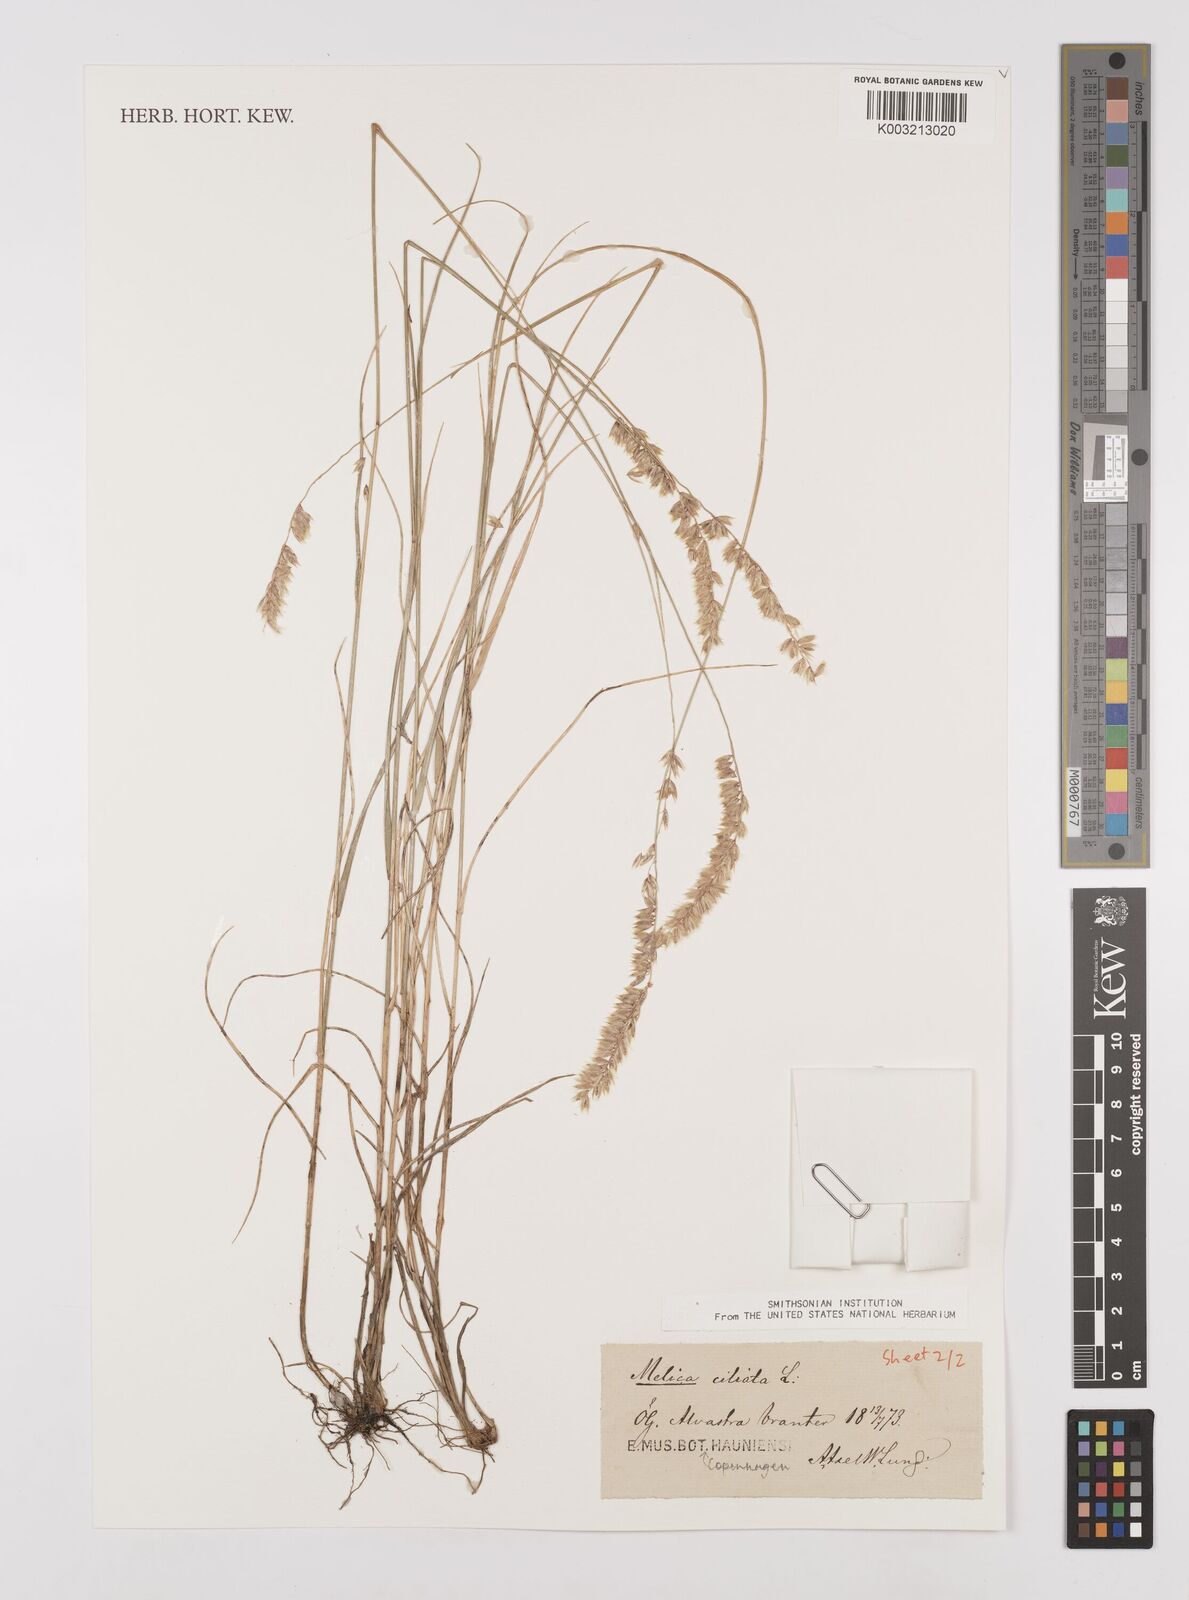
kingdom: Plantae
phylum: Tracheophyta
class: Liliopsida
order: Poales
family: Poaceae
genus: Melica
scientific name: Melica ciliata
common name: Hairy melicgrass
